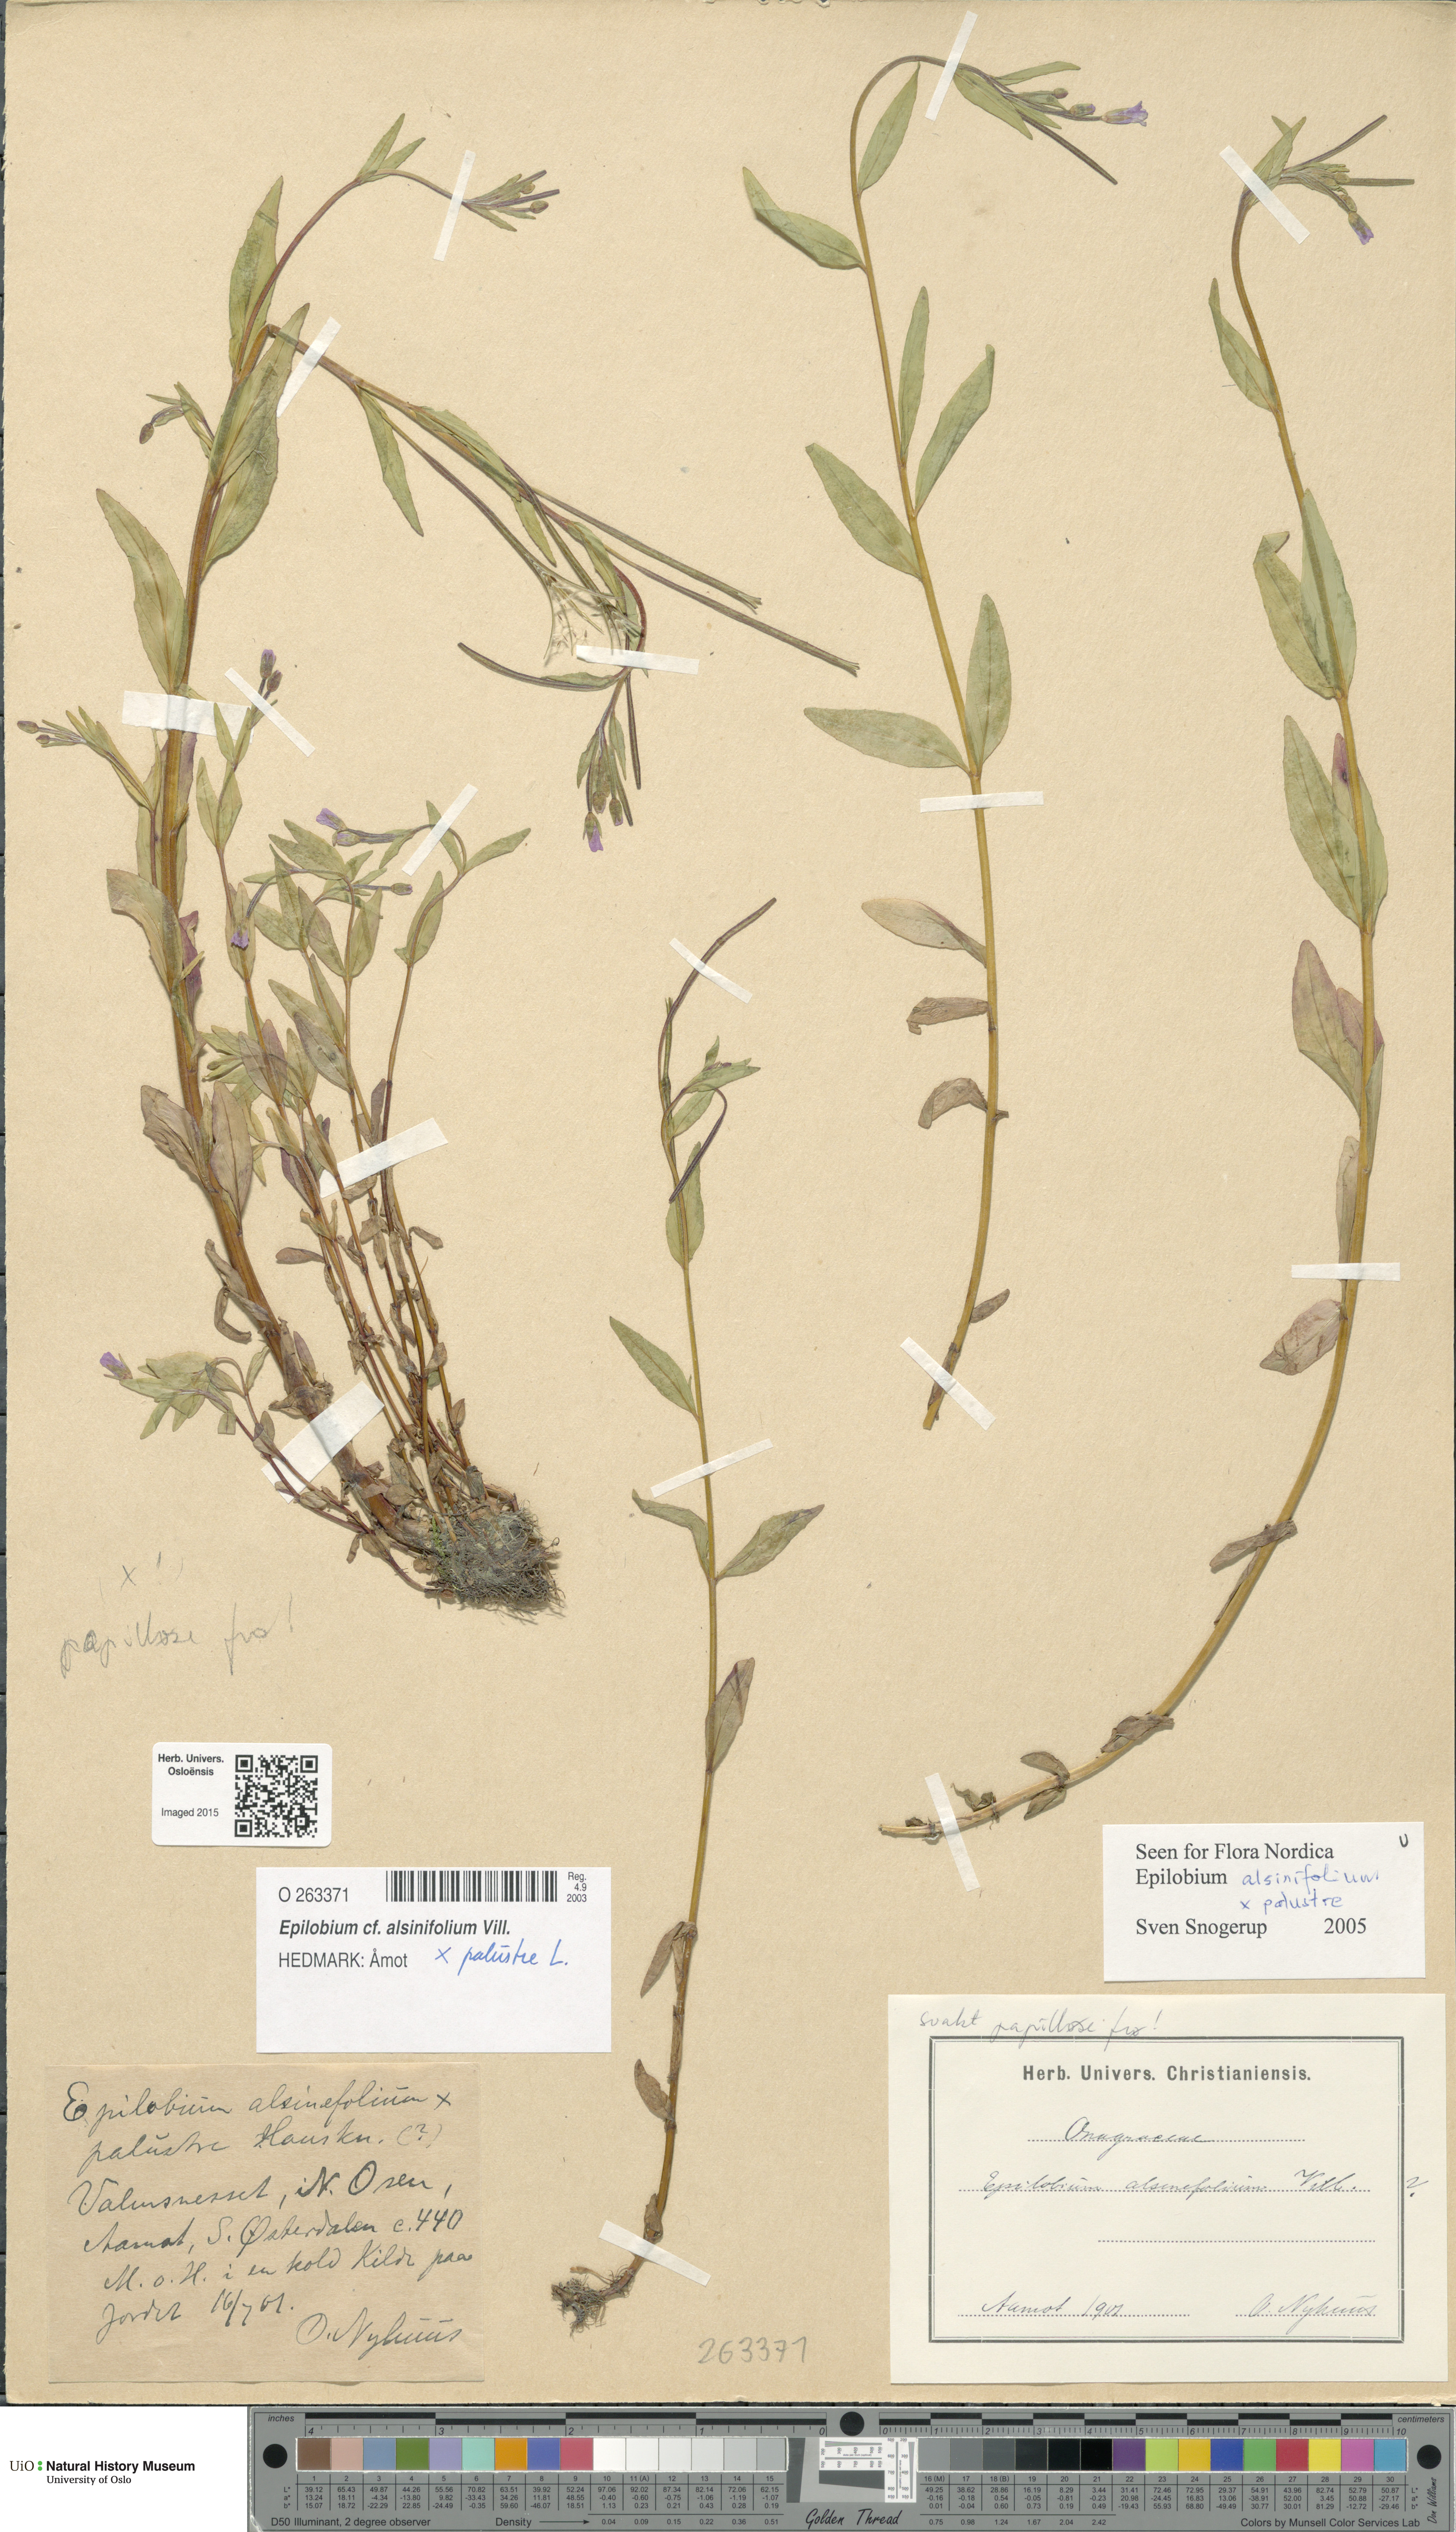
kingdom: Plantae
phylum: Tracheophyta
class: Magnoliopsida
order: Myrtales
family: Onagraceae
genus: Epilobium
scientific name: Epilobium
